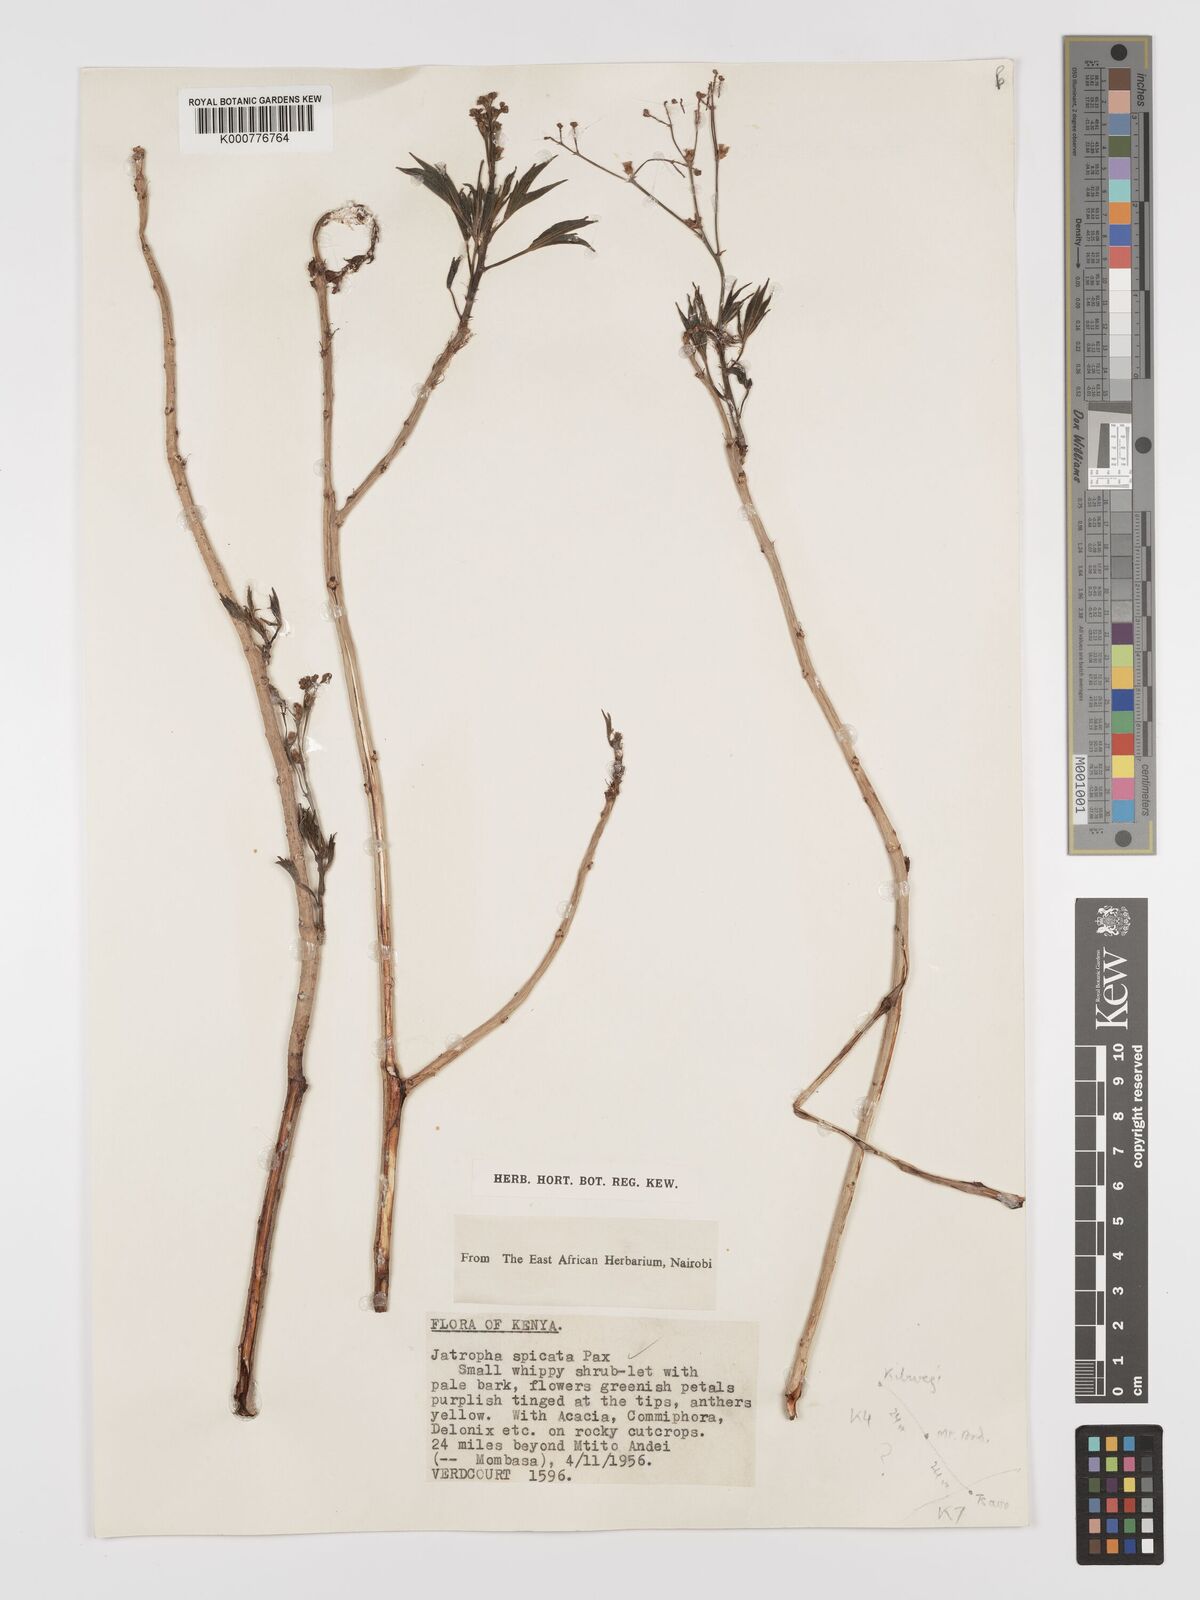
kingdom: Plantae
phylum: Tracheophyta
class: Magnoliopsida
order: Malpighiales
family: Euphorbiaceae
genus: Jatropha
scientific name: Jatropha spicata
